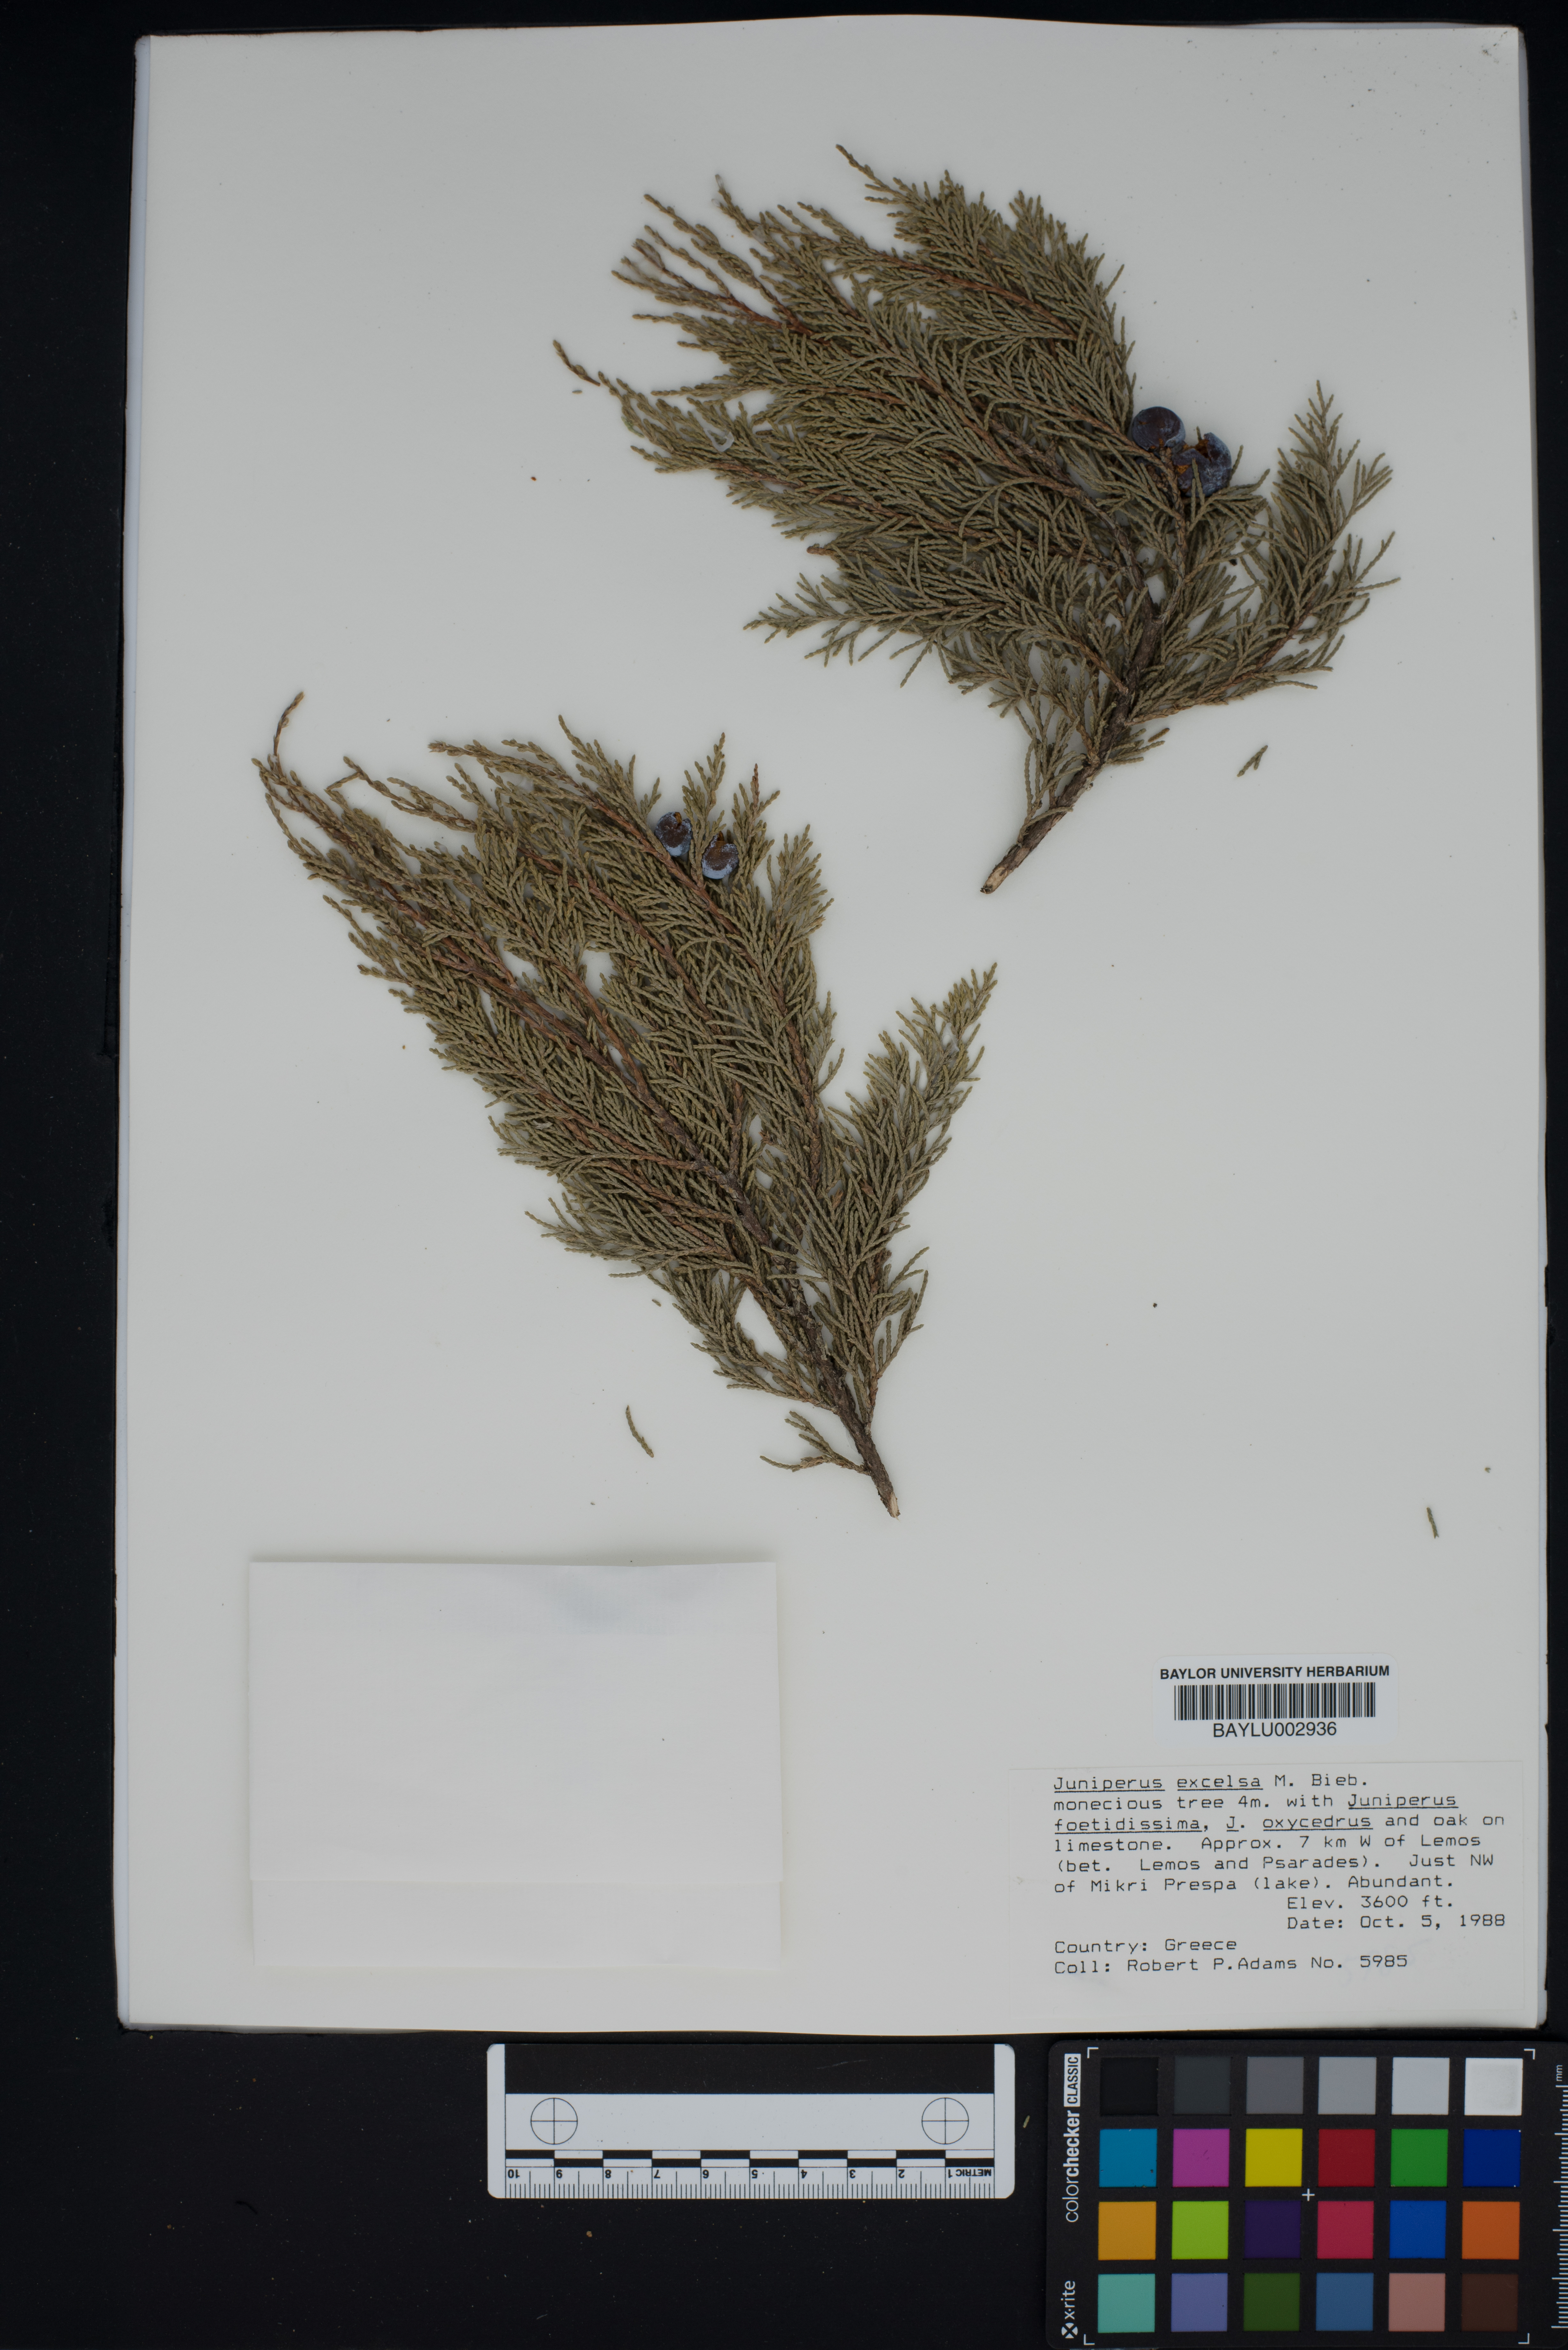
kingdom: Plantae
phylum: Tracheophyta
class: Pinopsida
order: Pinales
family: Cupressaceae
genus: Juniperus
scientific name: Juniperus excelsa
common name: Crimean juniper
